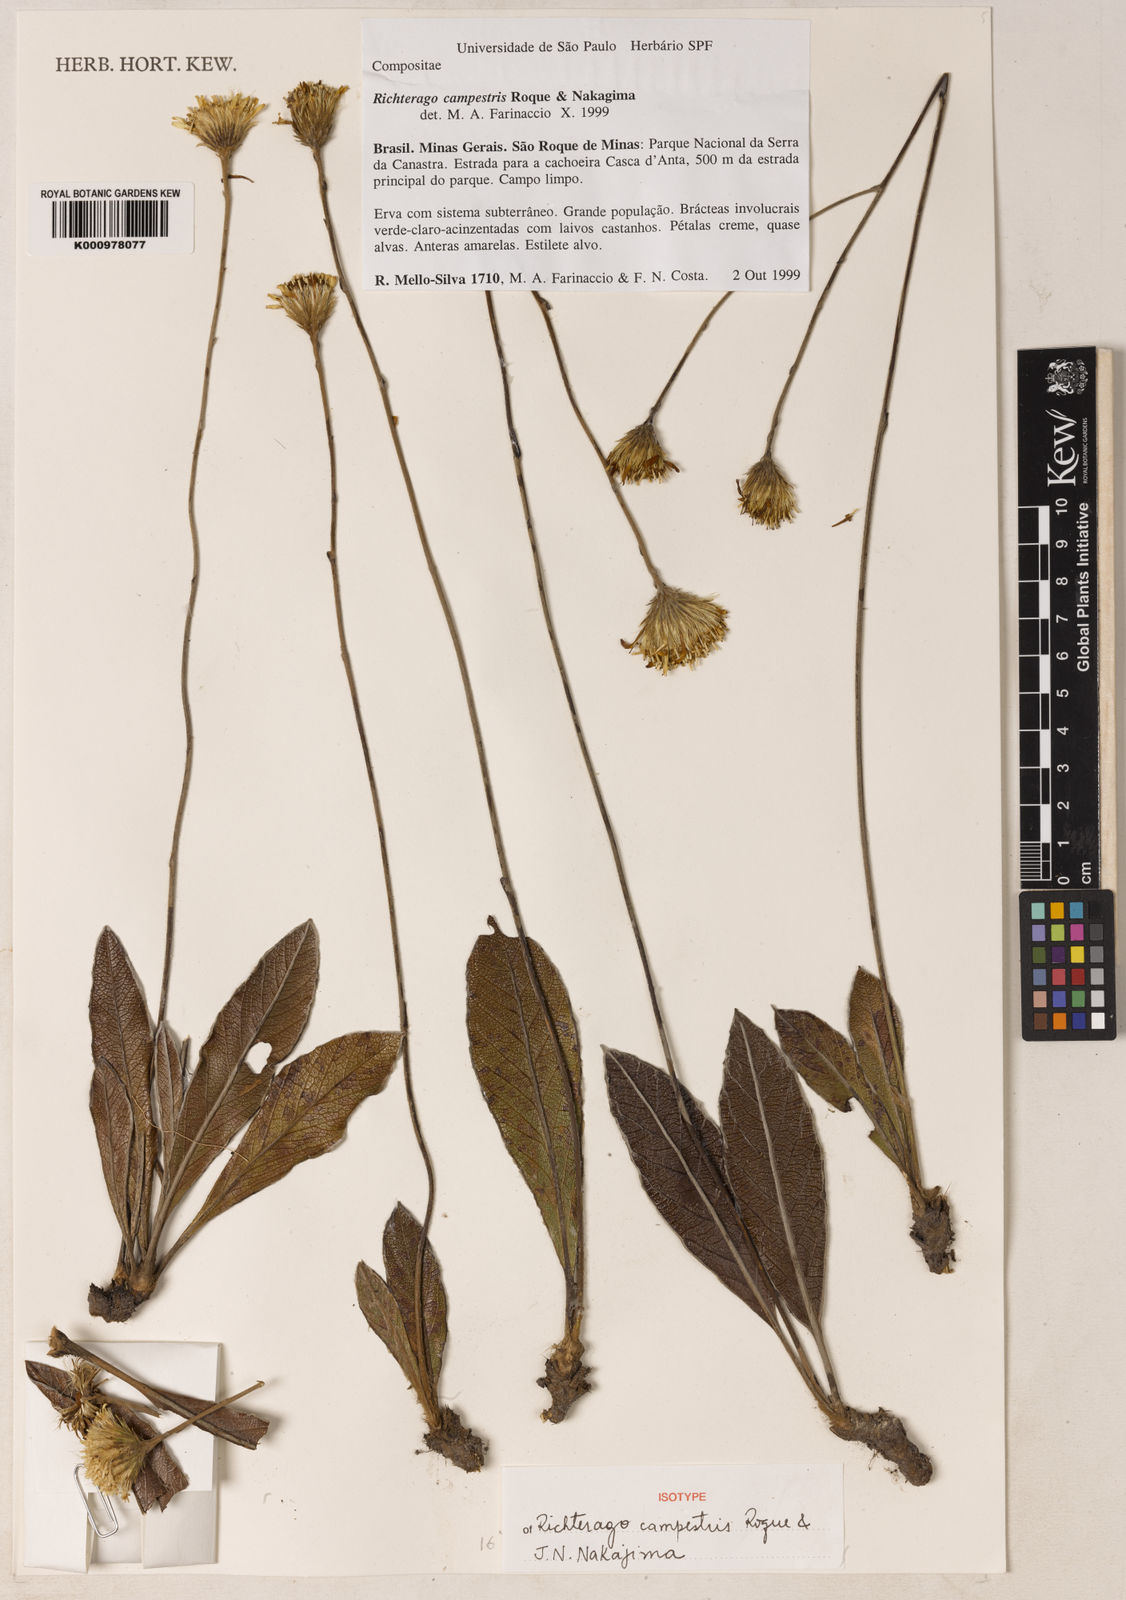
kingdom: Plantae
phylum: Tracheophyta
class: Magnoliopsida
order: Asterales
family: Asteraceae
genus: Richterago
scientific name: Richterago campestris
